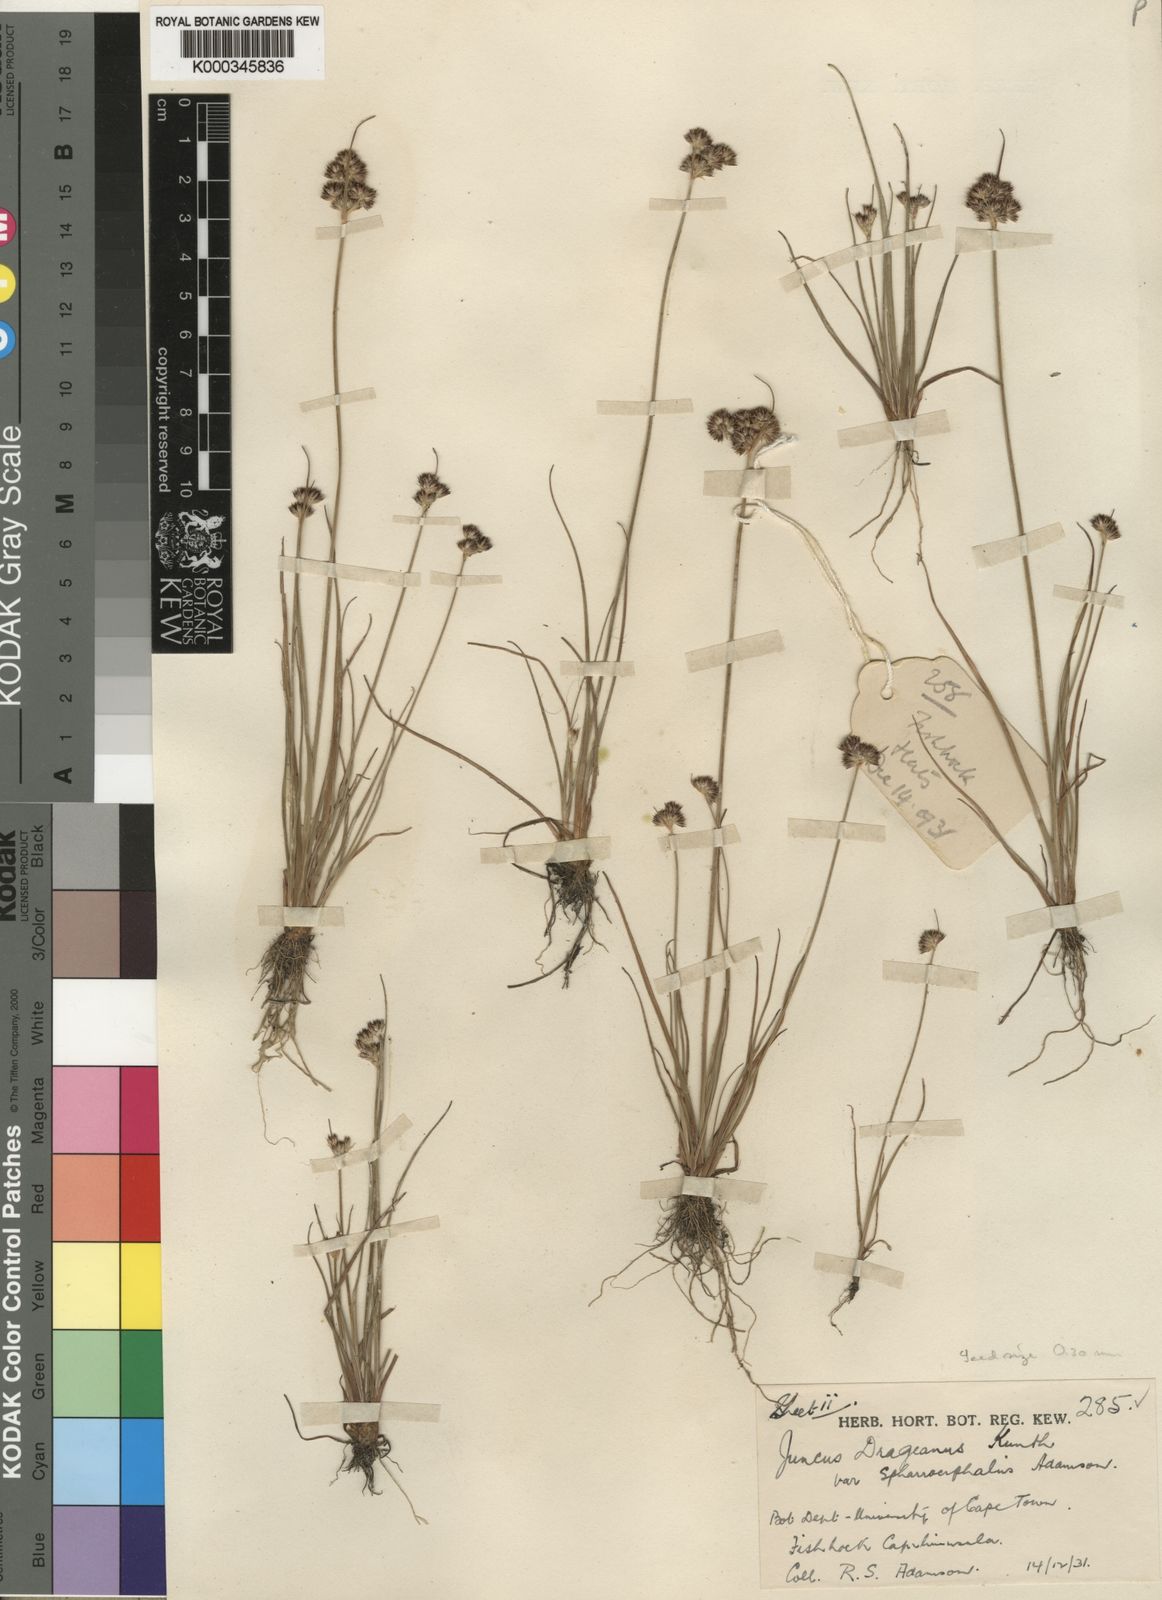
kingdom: Plantae
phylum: Tracheophyta
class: Liliopsida
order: Poales
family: Juncaceae
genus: Juncus
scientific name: Juncus dregeanus
